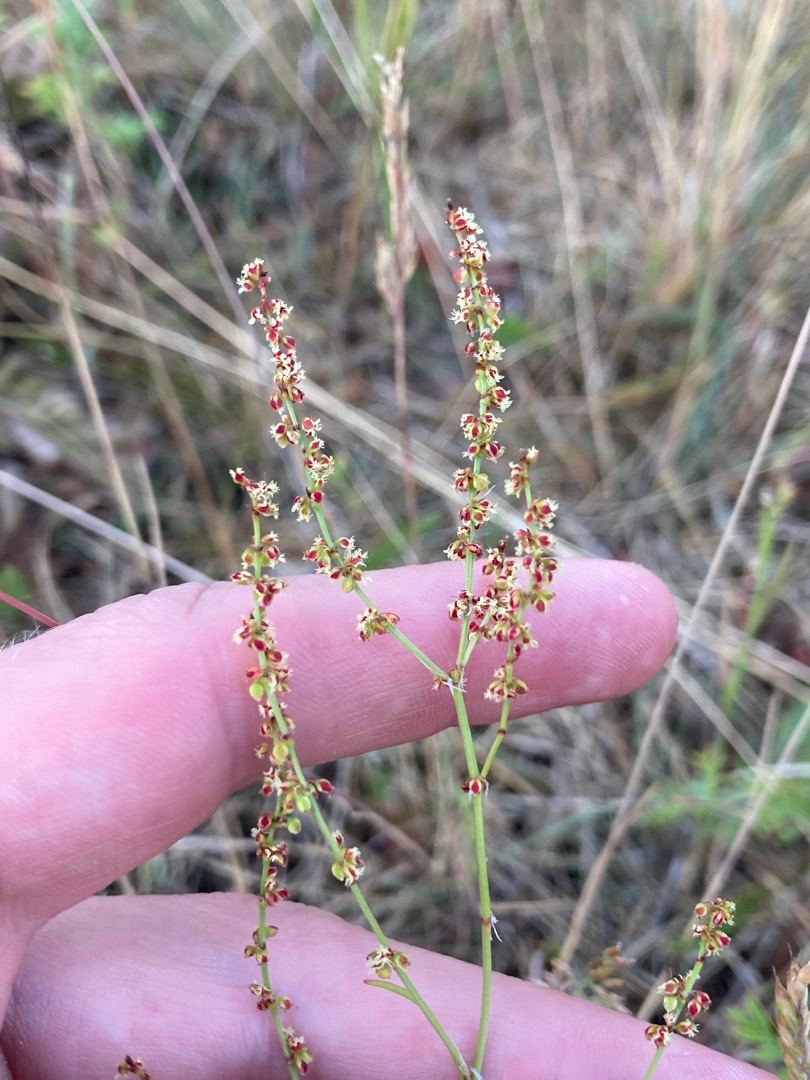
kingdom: Plantae
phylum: Tracheophyta
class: Magnoliopsida
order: Caryophyllales
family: Polygonaceae
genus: Rumex
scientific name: Rumex acetosella
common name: Rødknæ
